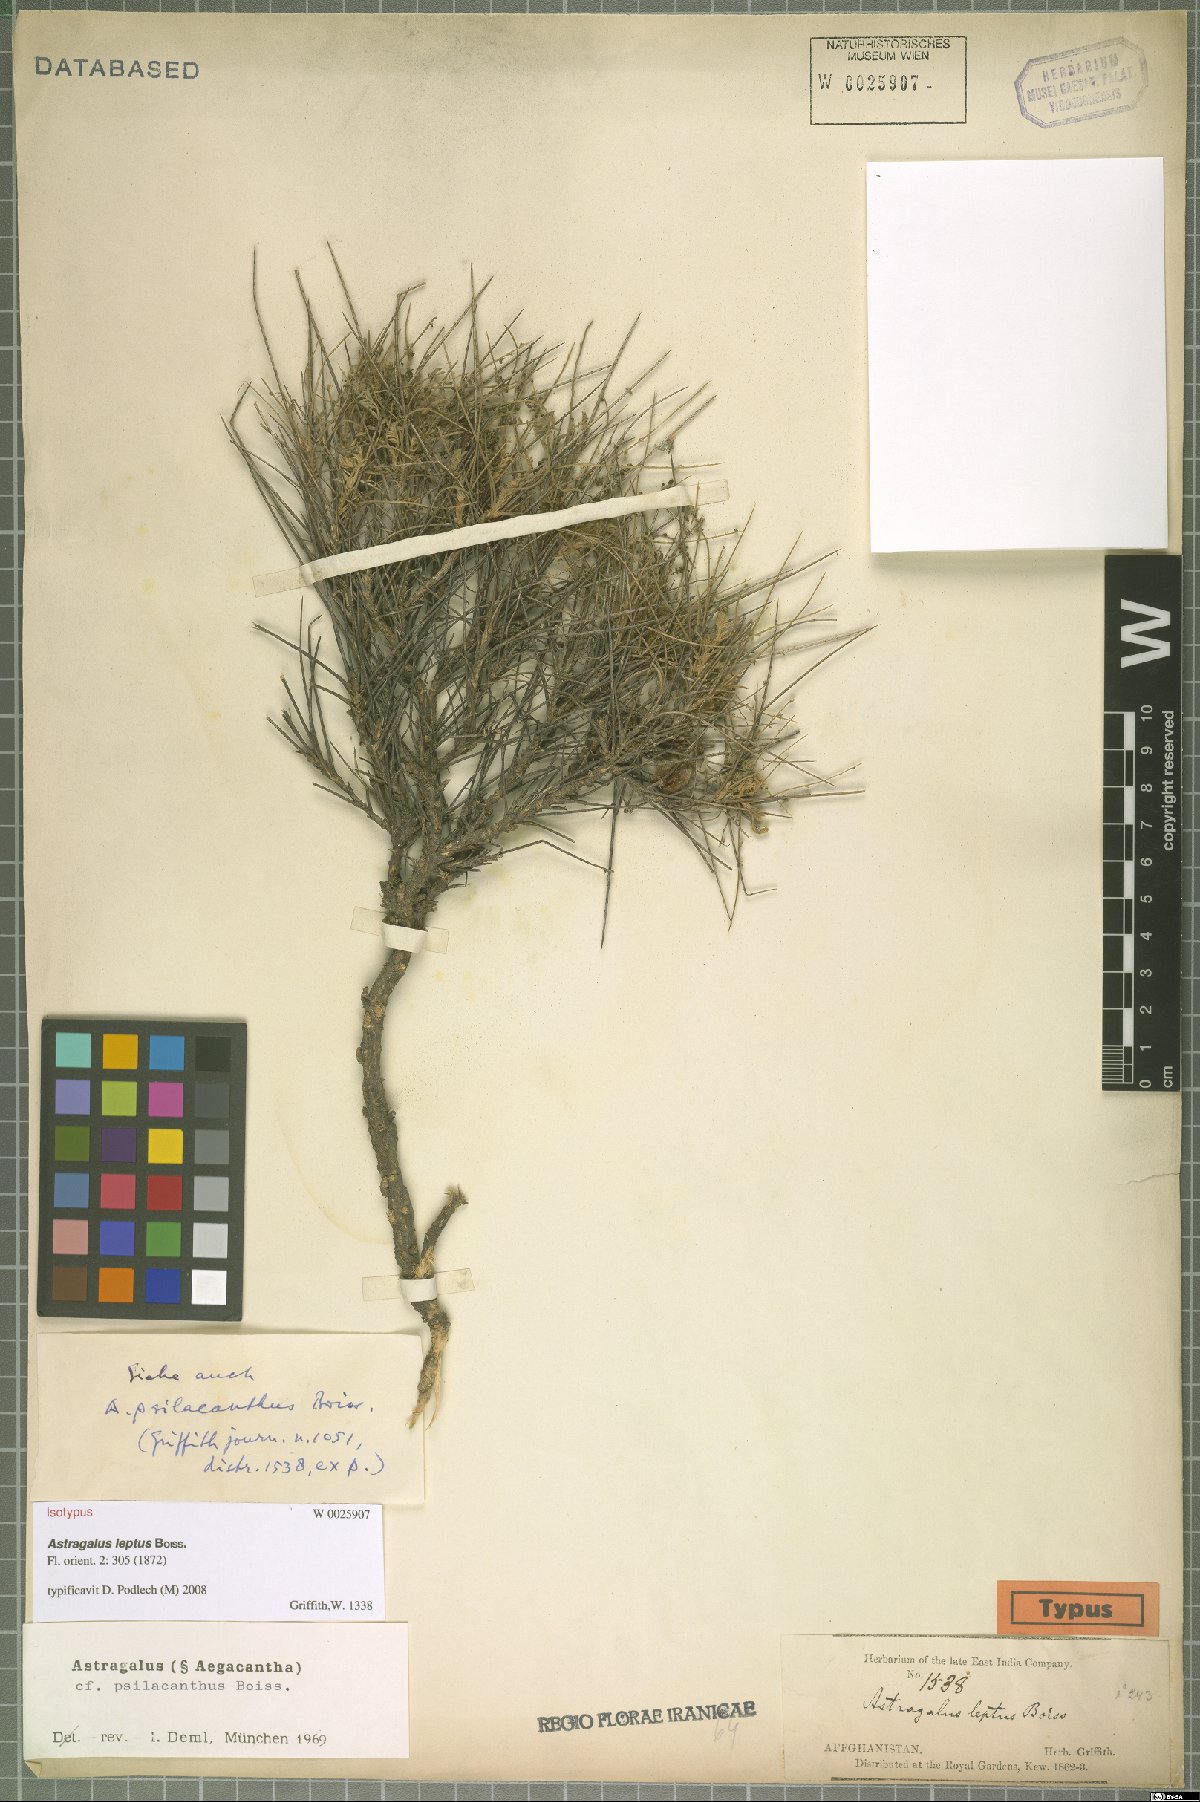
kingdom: Plantae
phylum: Tracheophyta
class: Magnoliopsida
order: Fabales
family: Fabaceae
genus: Astragalus
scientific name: Astragalus leptus
